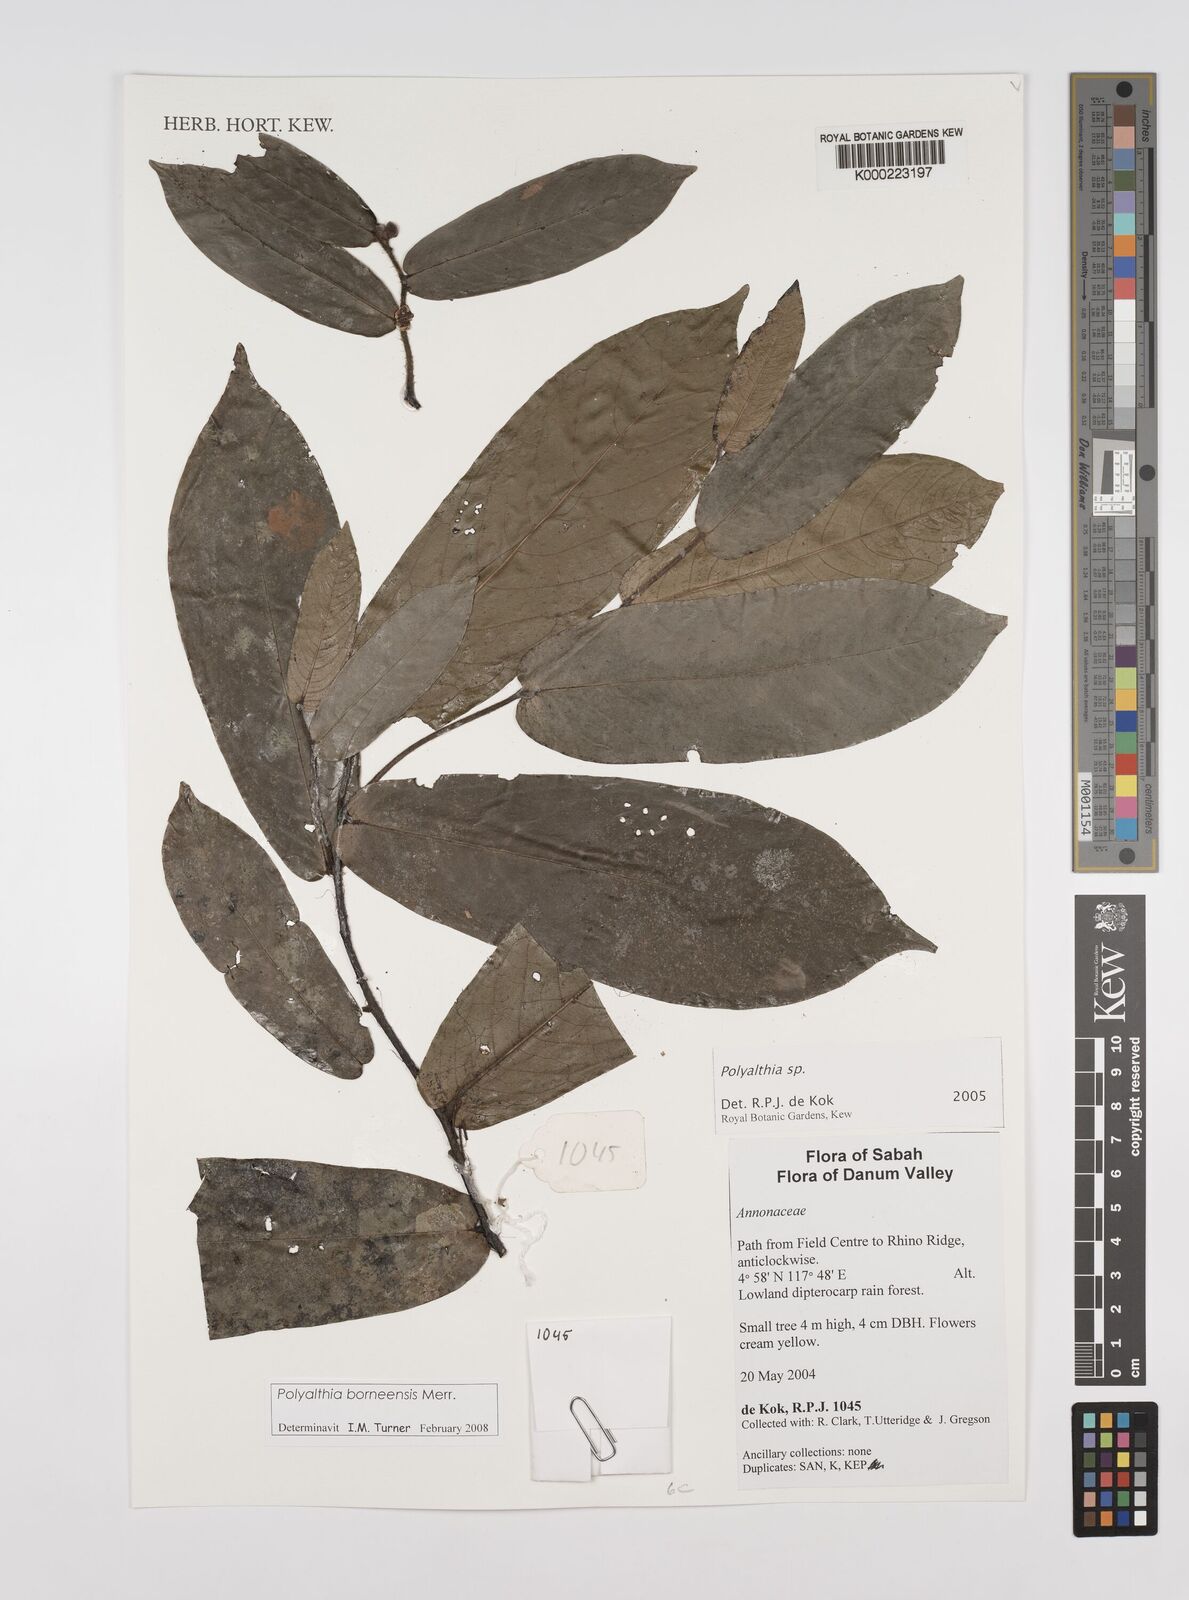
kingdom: Plantae
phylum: Tracheophyta
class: Magnoliopsida
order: Magnoliales
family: Annonaceae
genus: Polyalthia
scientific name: Polyalthia
